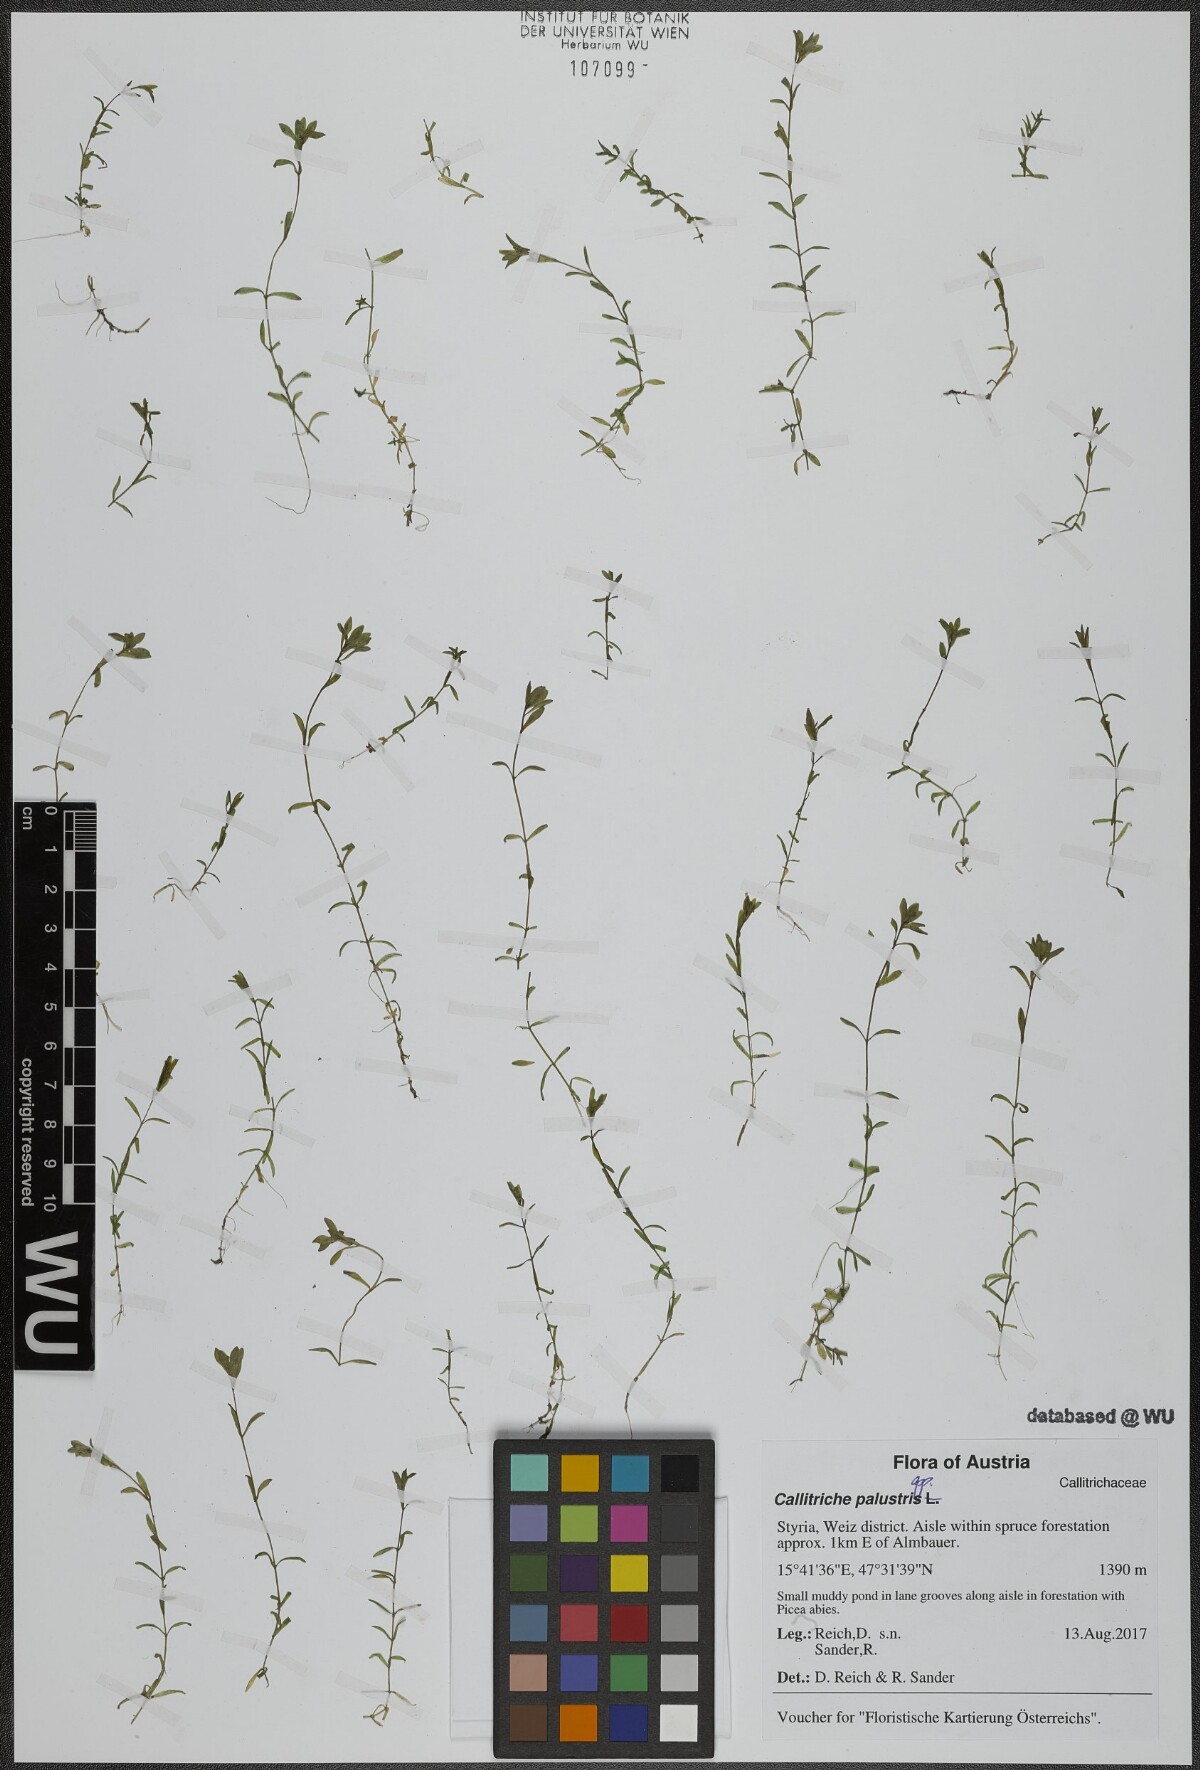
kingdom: Plantae
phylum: Tracheophyta
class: Magnoliopsida
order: Lamiales
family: Plantaginaceae
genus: Callitriche
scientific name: Callitriche cophocarpa
